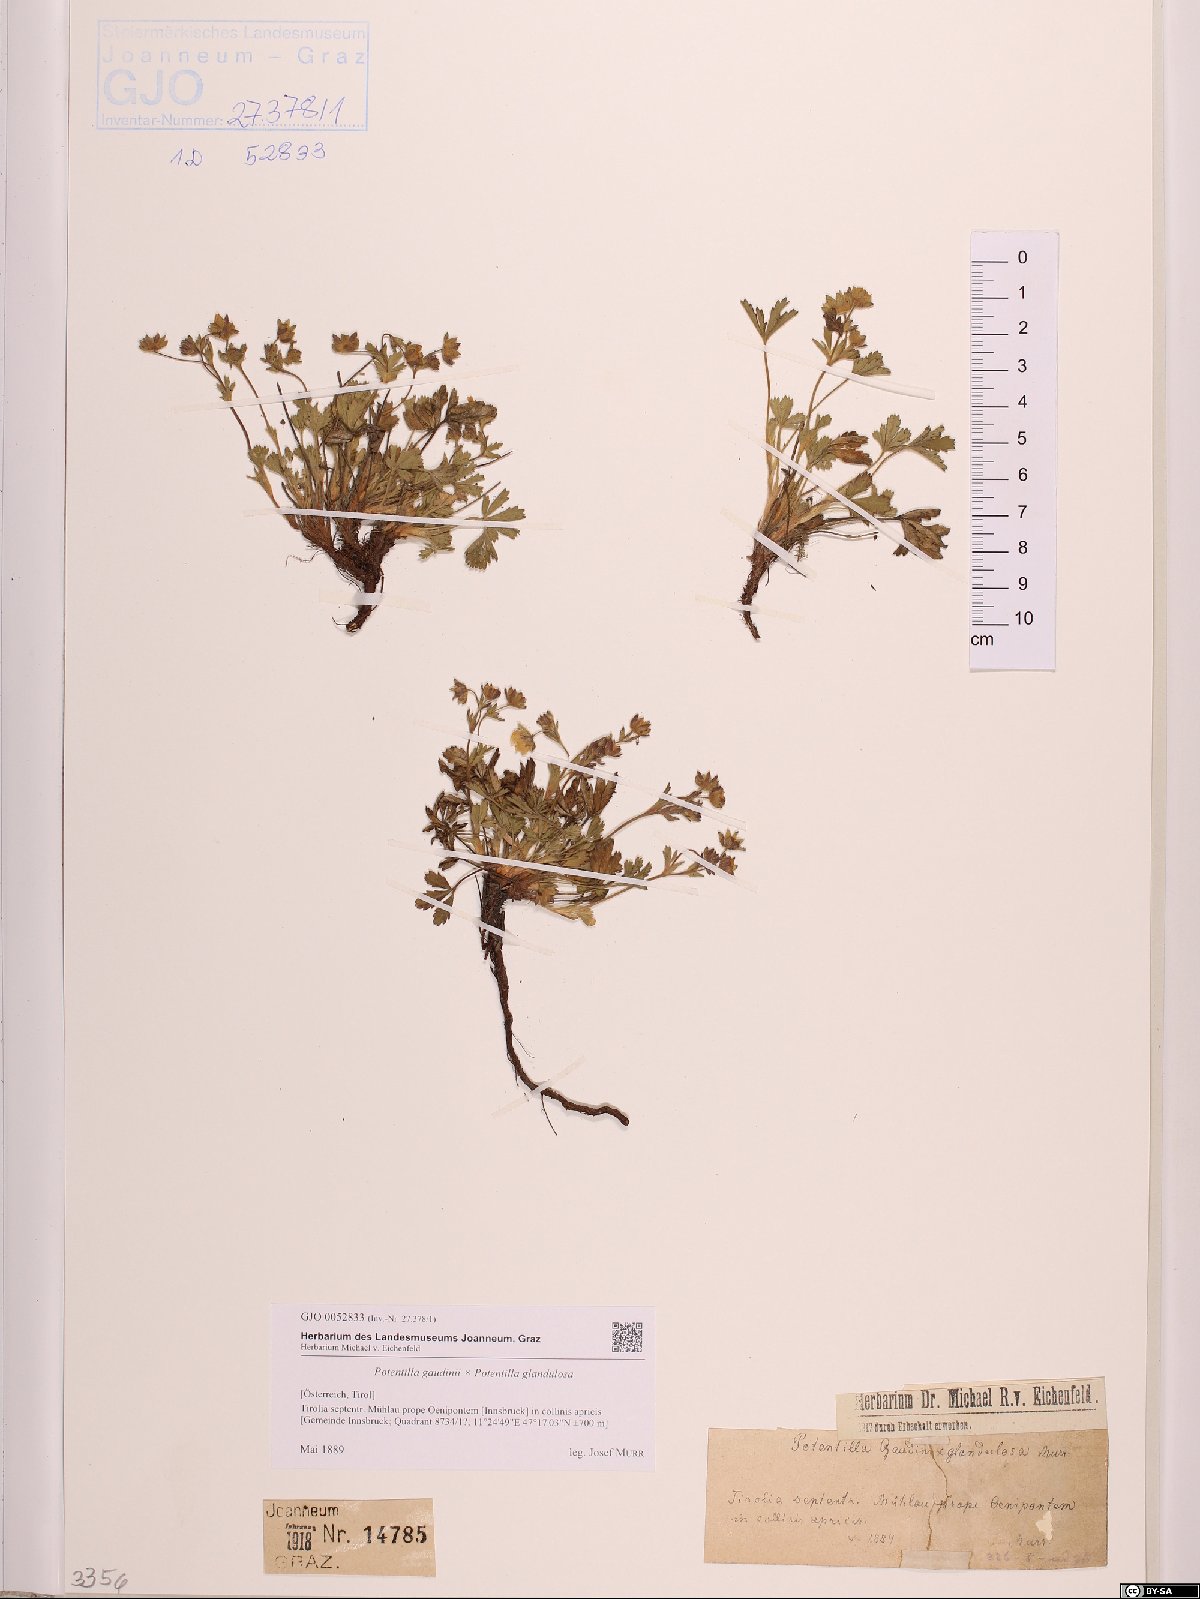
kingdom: Plantae
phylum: Tracheophyta
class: Magnoliopsida
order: Rosales
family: Rosaceae
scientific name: Rosaceae
